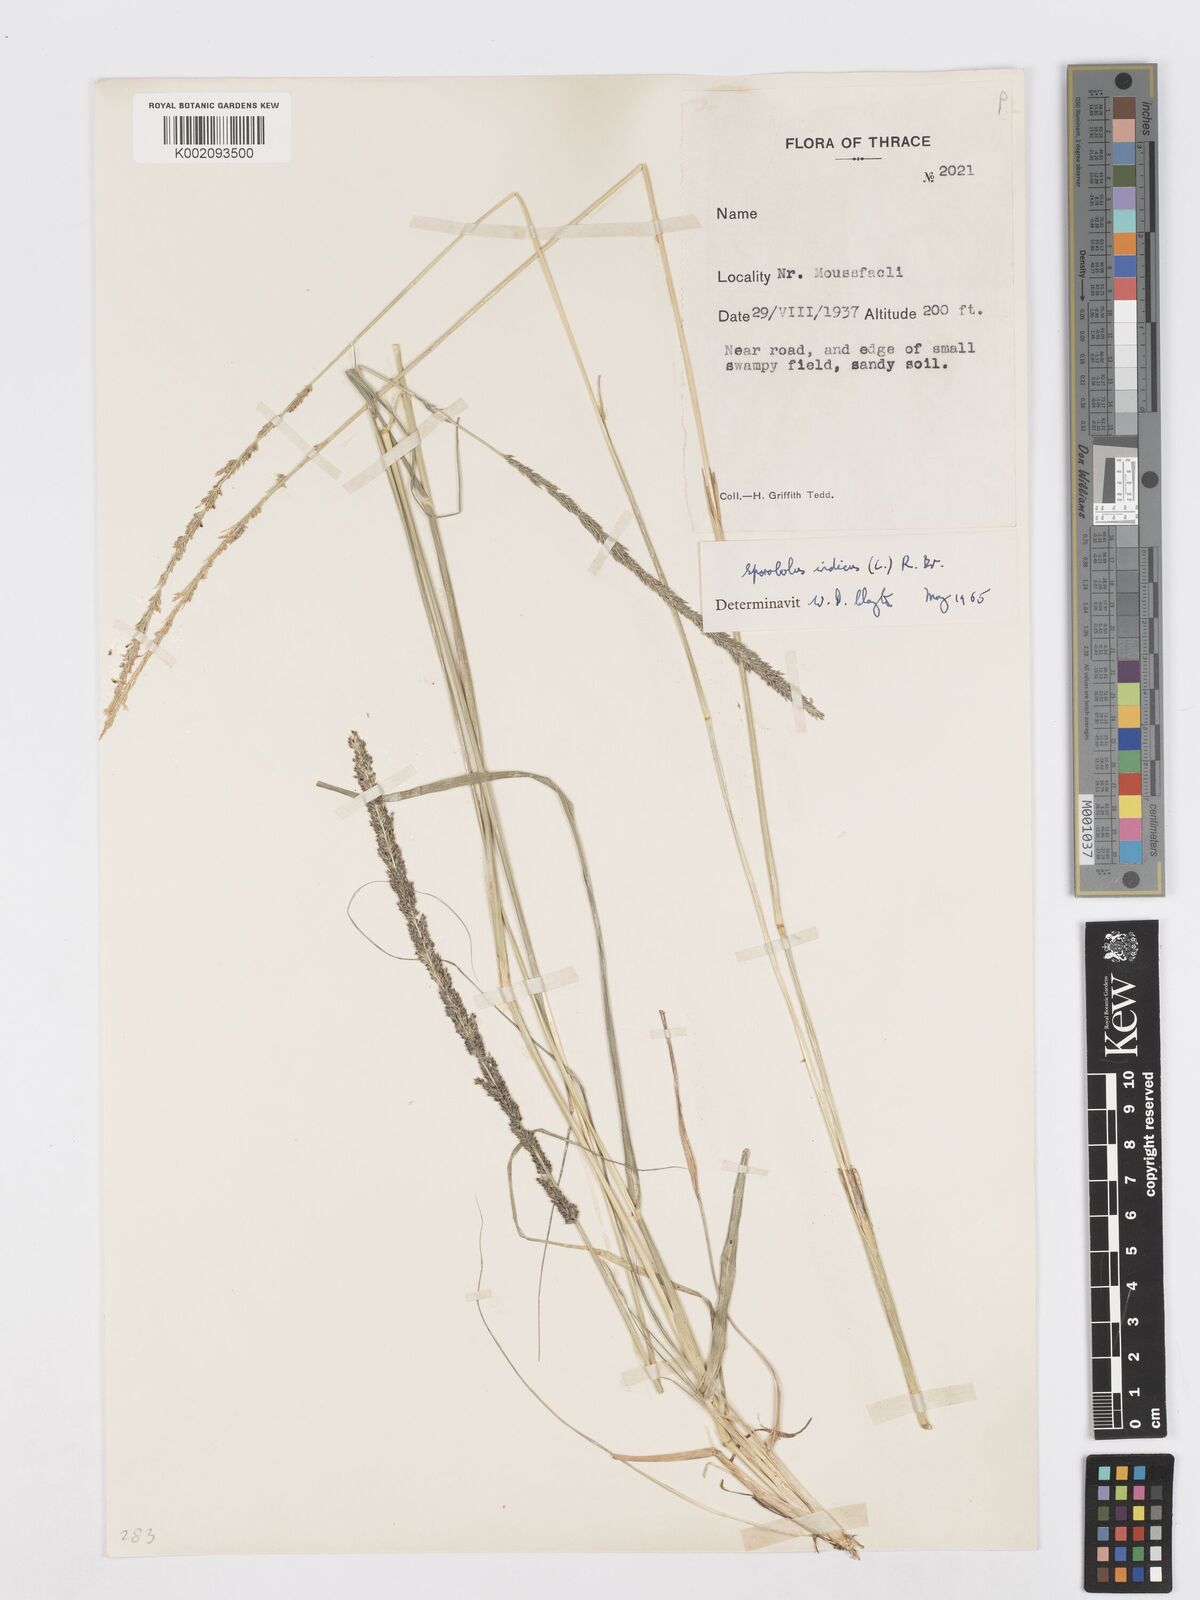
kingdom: Plantae
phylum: Tracheophyta
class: Liliopsida
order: Poales
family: Poaceae
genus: Sporobolus
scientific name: Sporobolus indicus
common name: Smut grass
